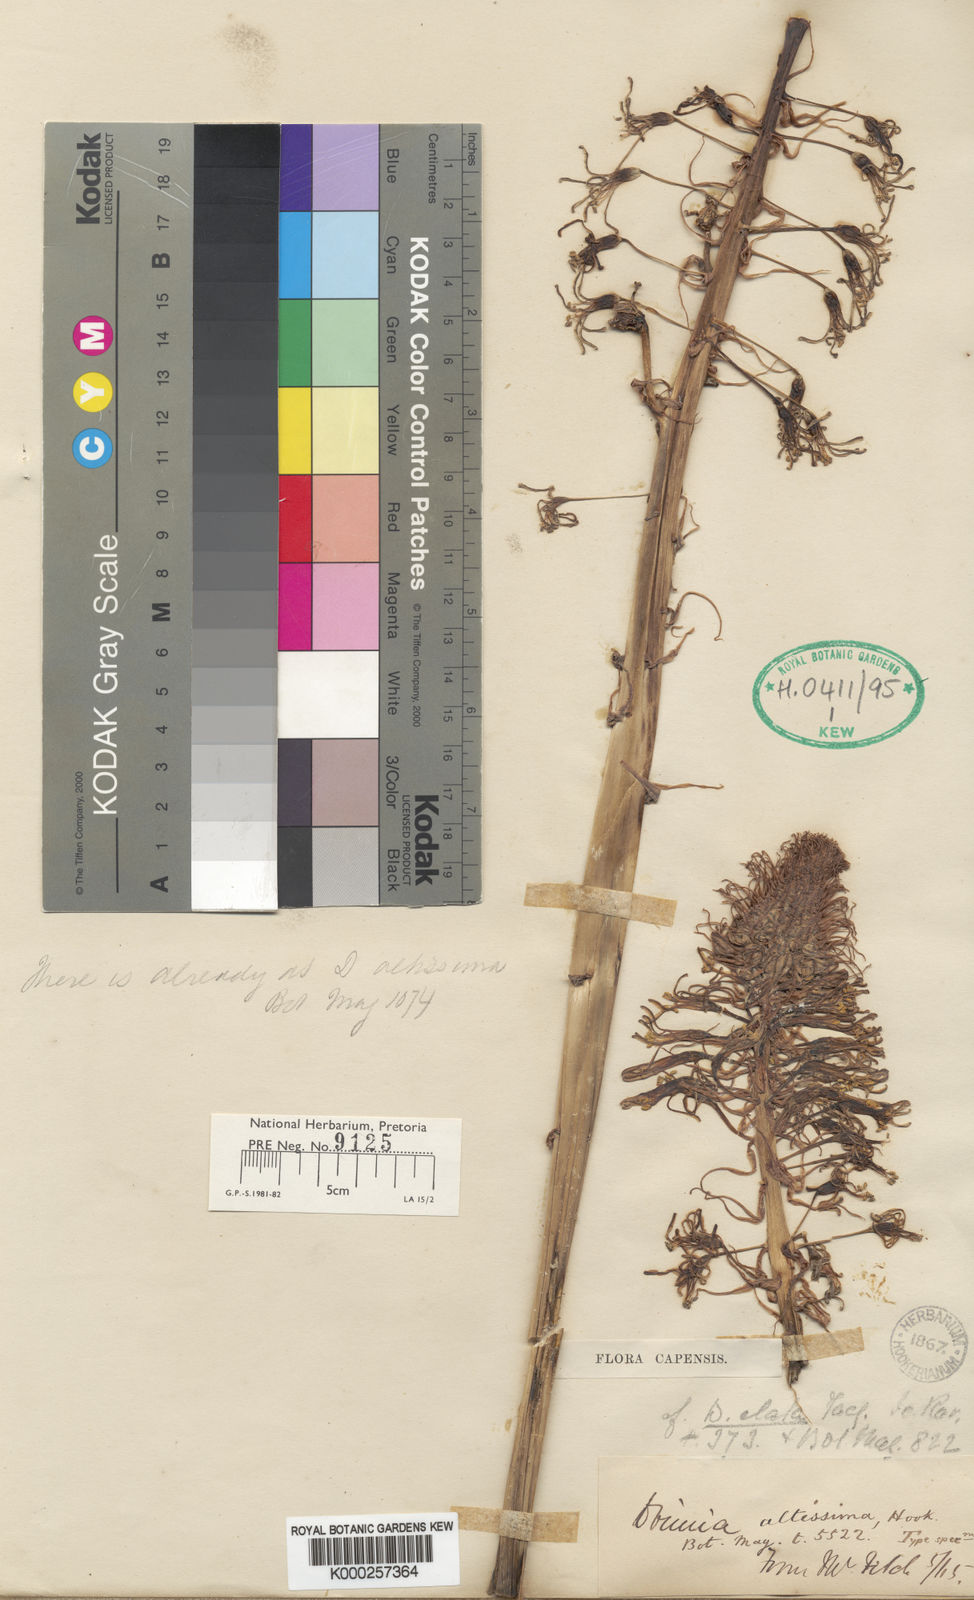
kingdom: Plantae
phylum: Tracheophyta
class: Liliopsida
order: Asparagales
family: Asparagaceae
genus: Drimia
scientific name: Drimia elata
